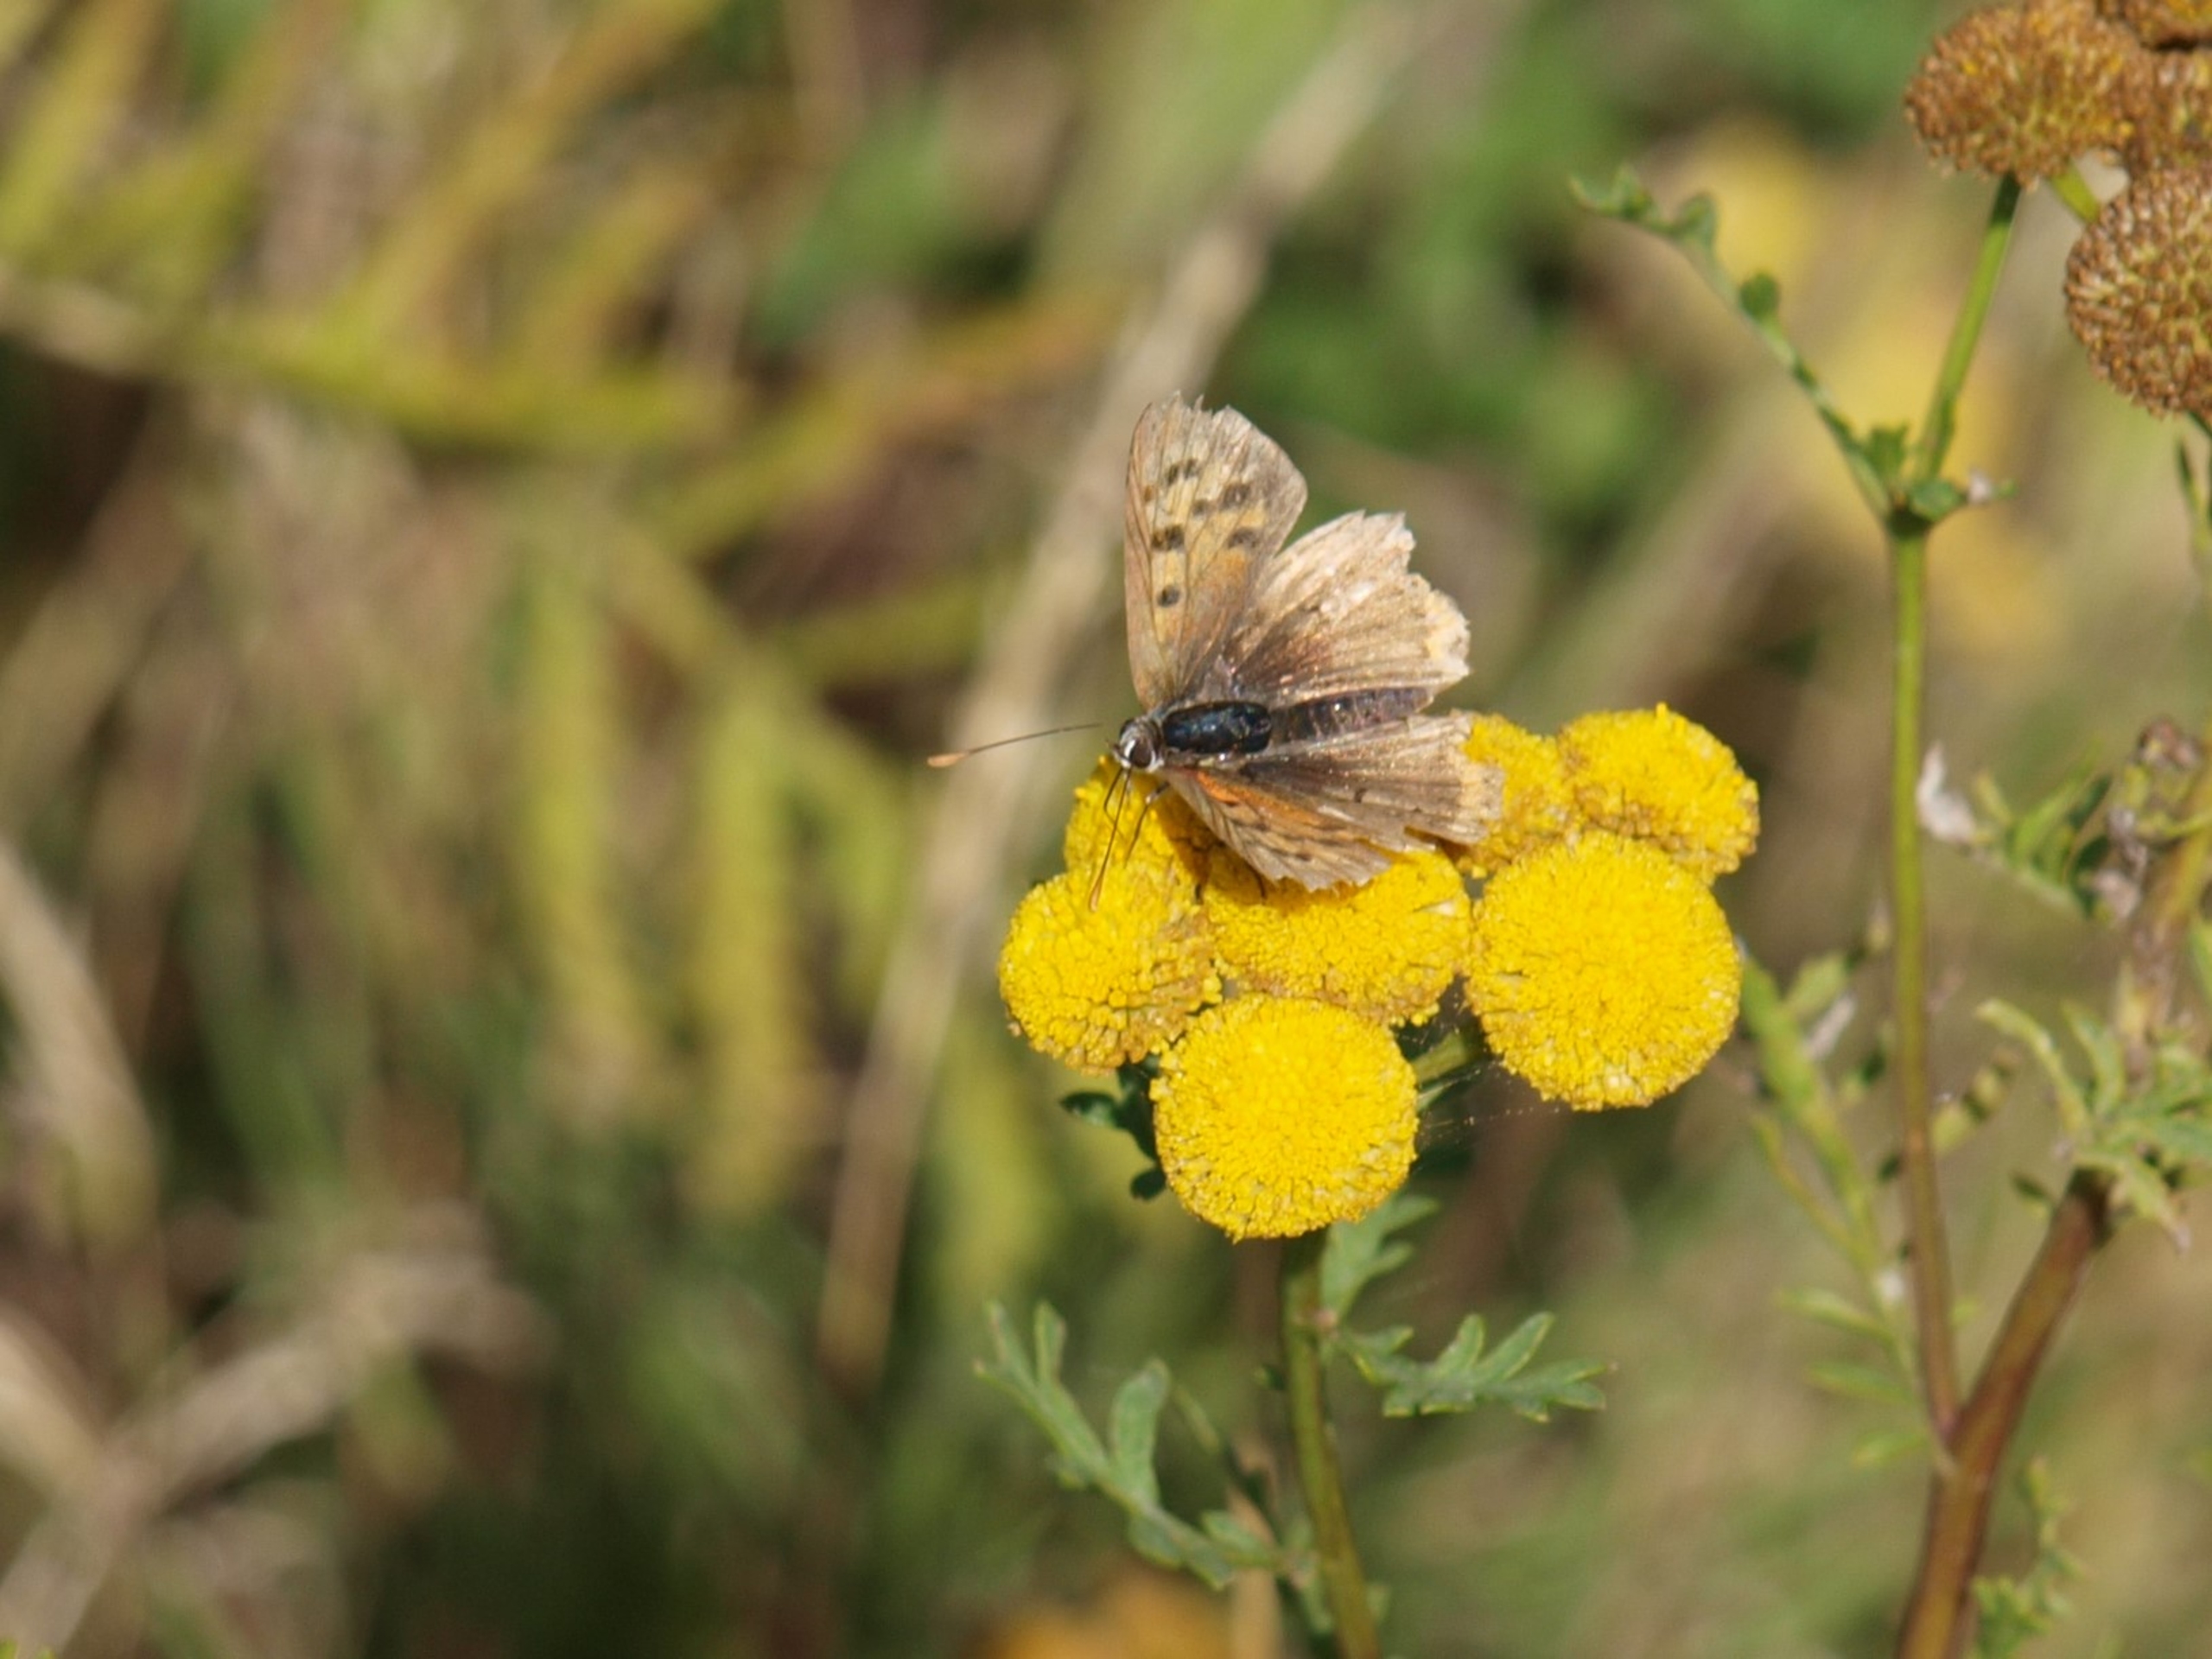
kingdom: Animalia
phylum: Arthropoda
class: Insecta
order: Lepidoptera
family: Lycaenidae
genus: Lycaena
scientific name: Lycaena phlaeas
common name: Lille ildfugl
